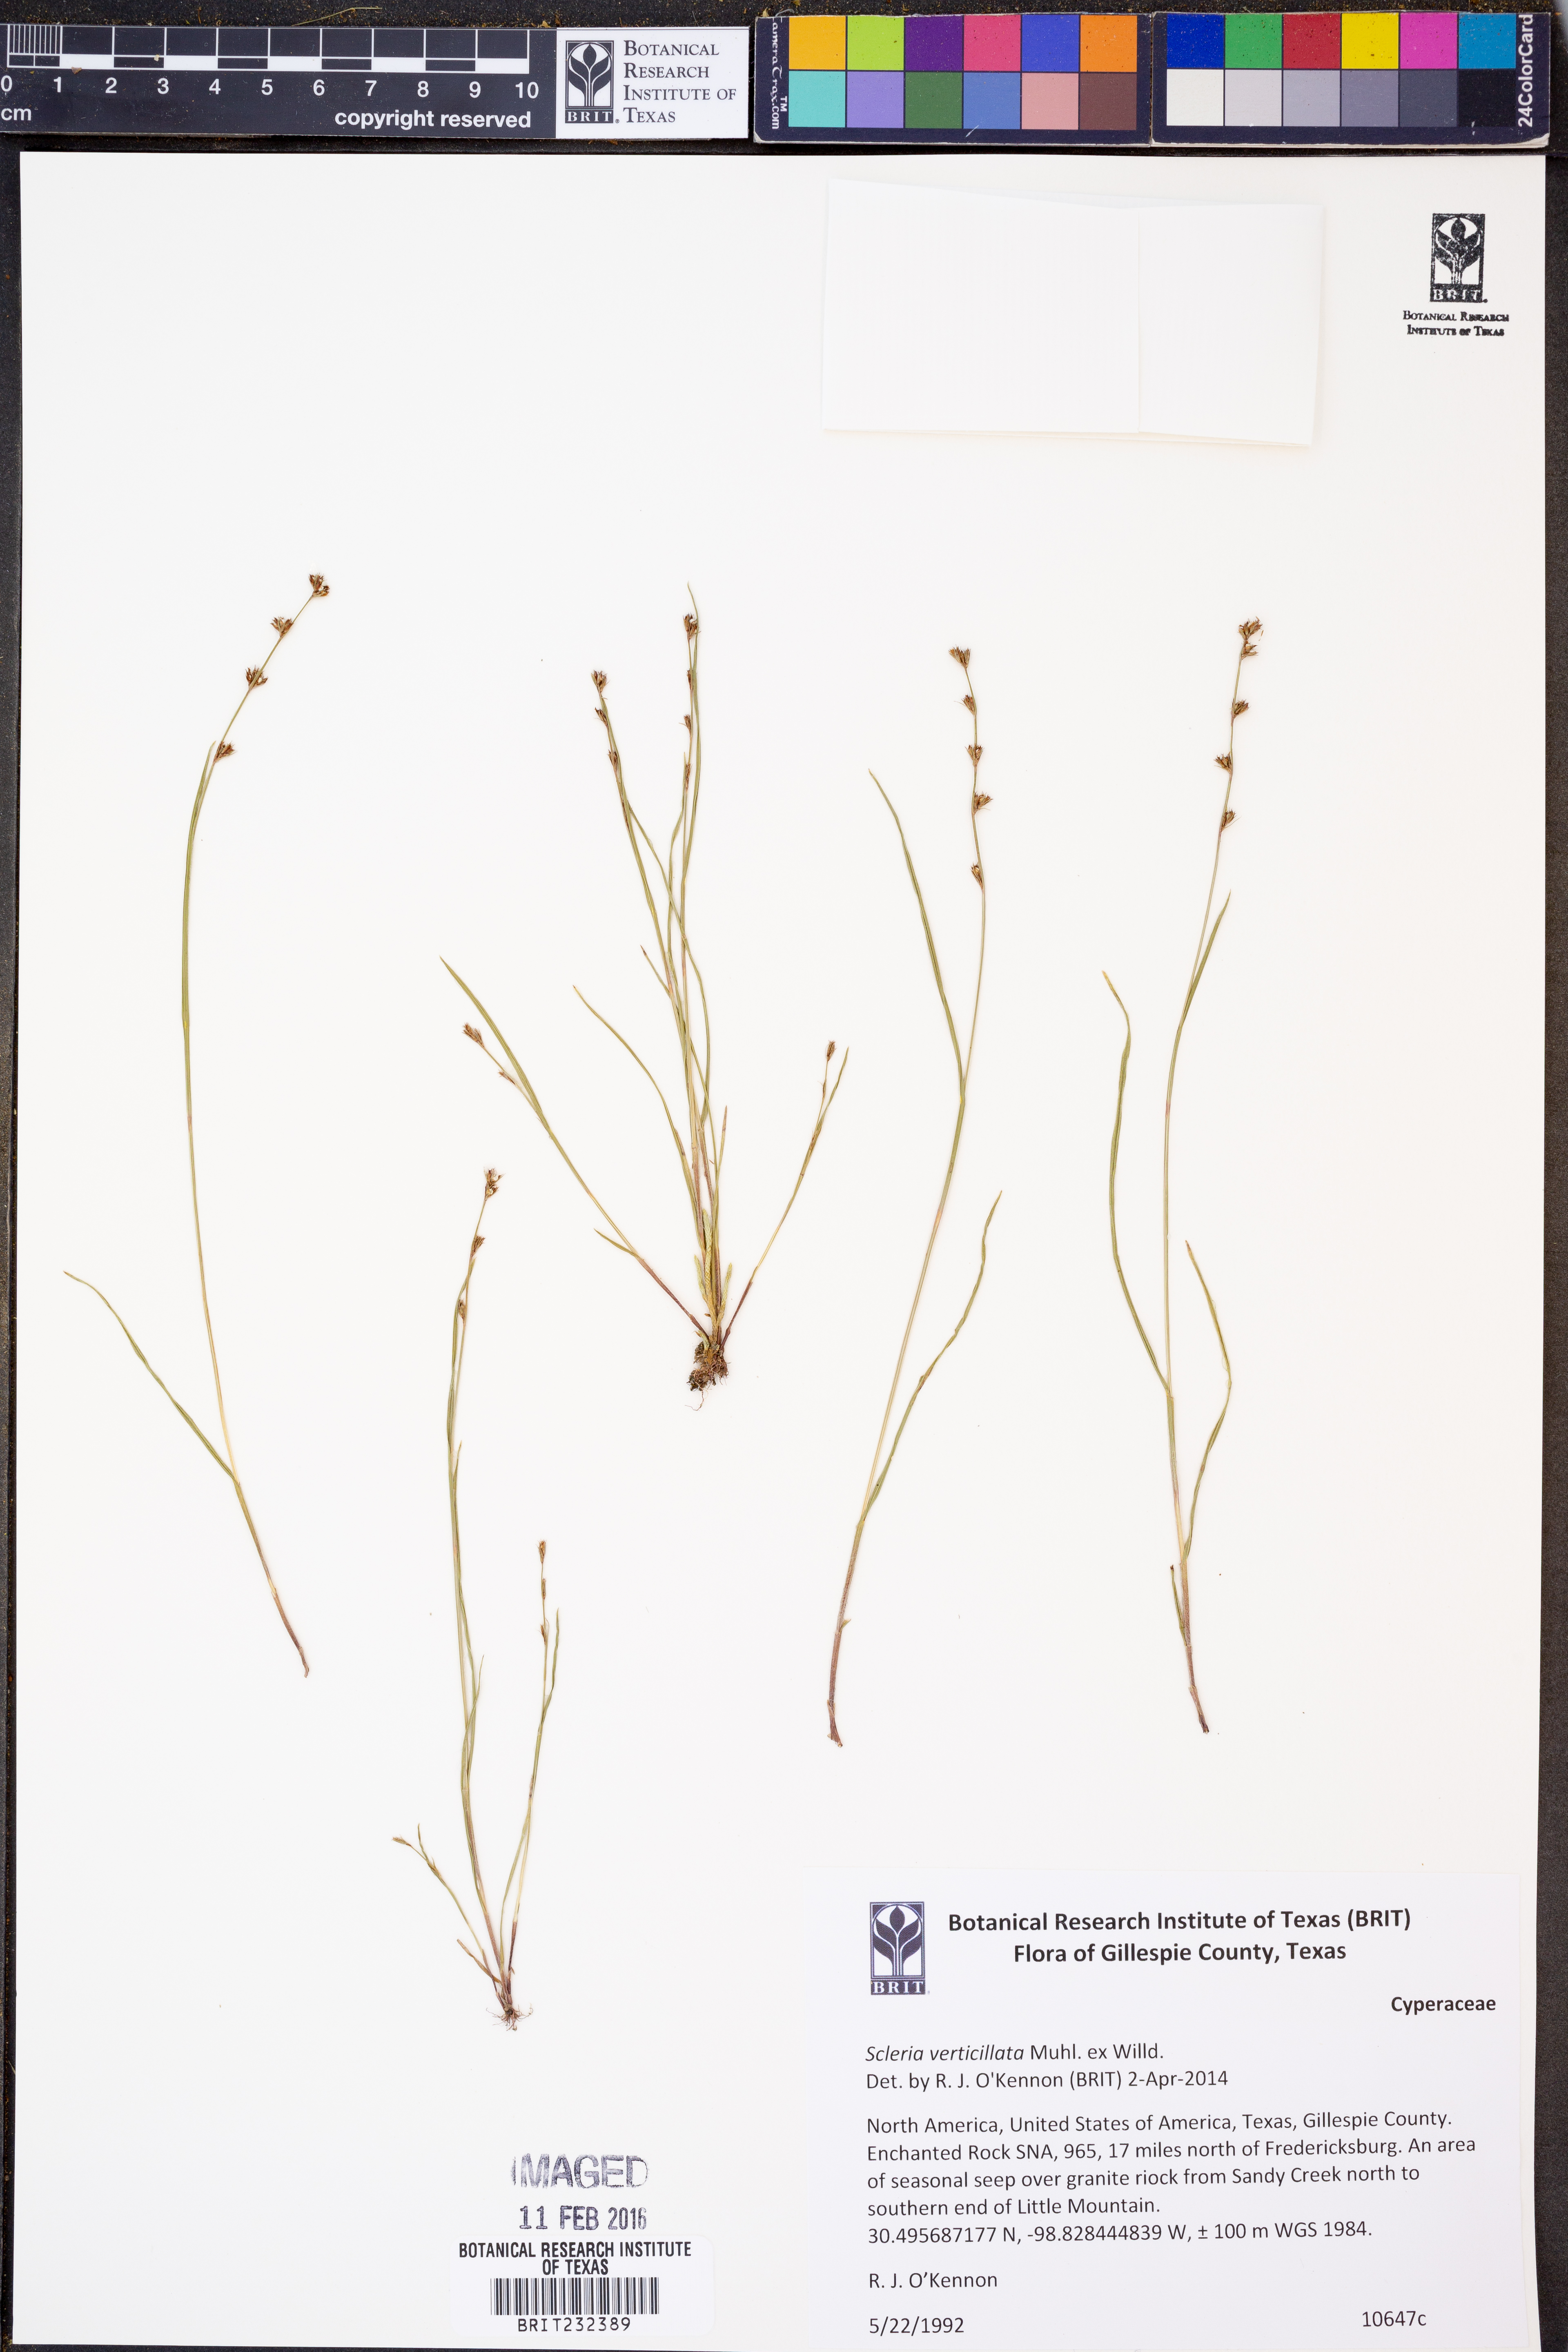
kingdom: Plantae
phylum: Tracheophyta
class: Liliopsida
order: Poales
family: Cyperaceae
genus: Scleria
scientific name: Scleria verticillata
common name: Low nutrush
